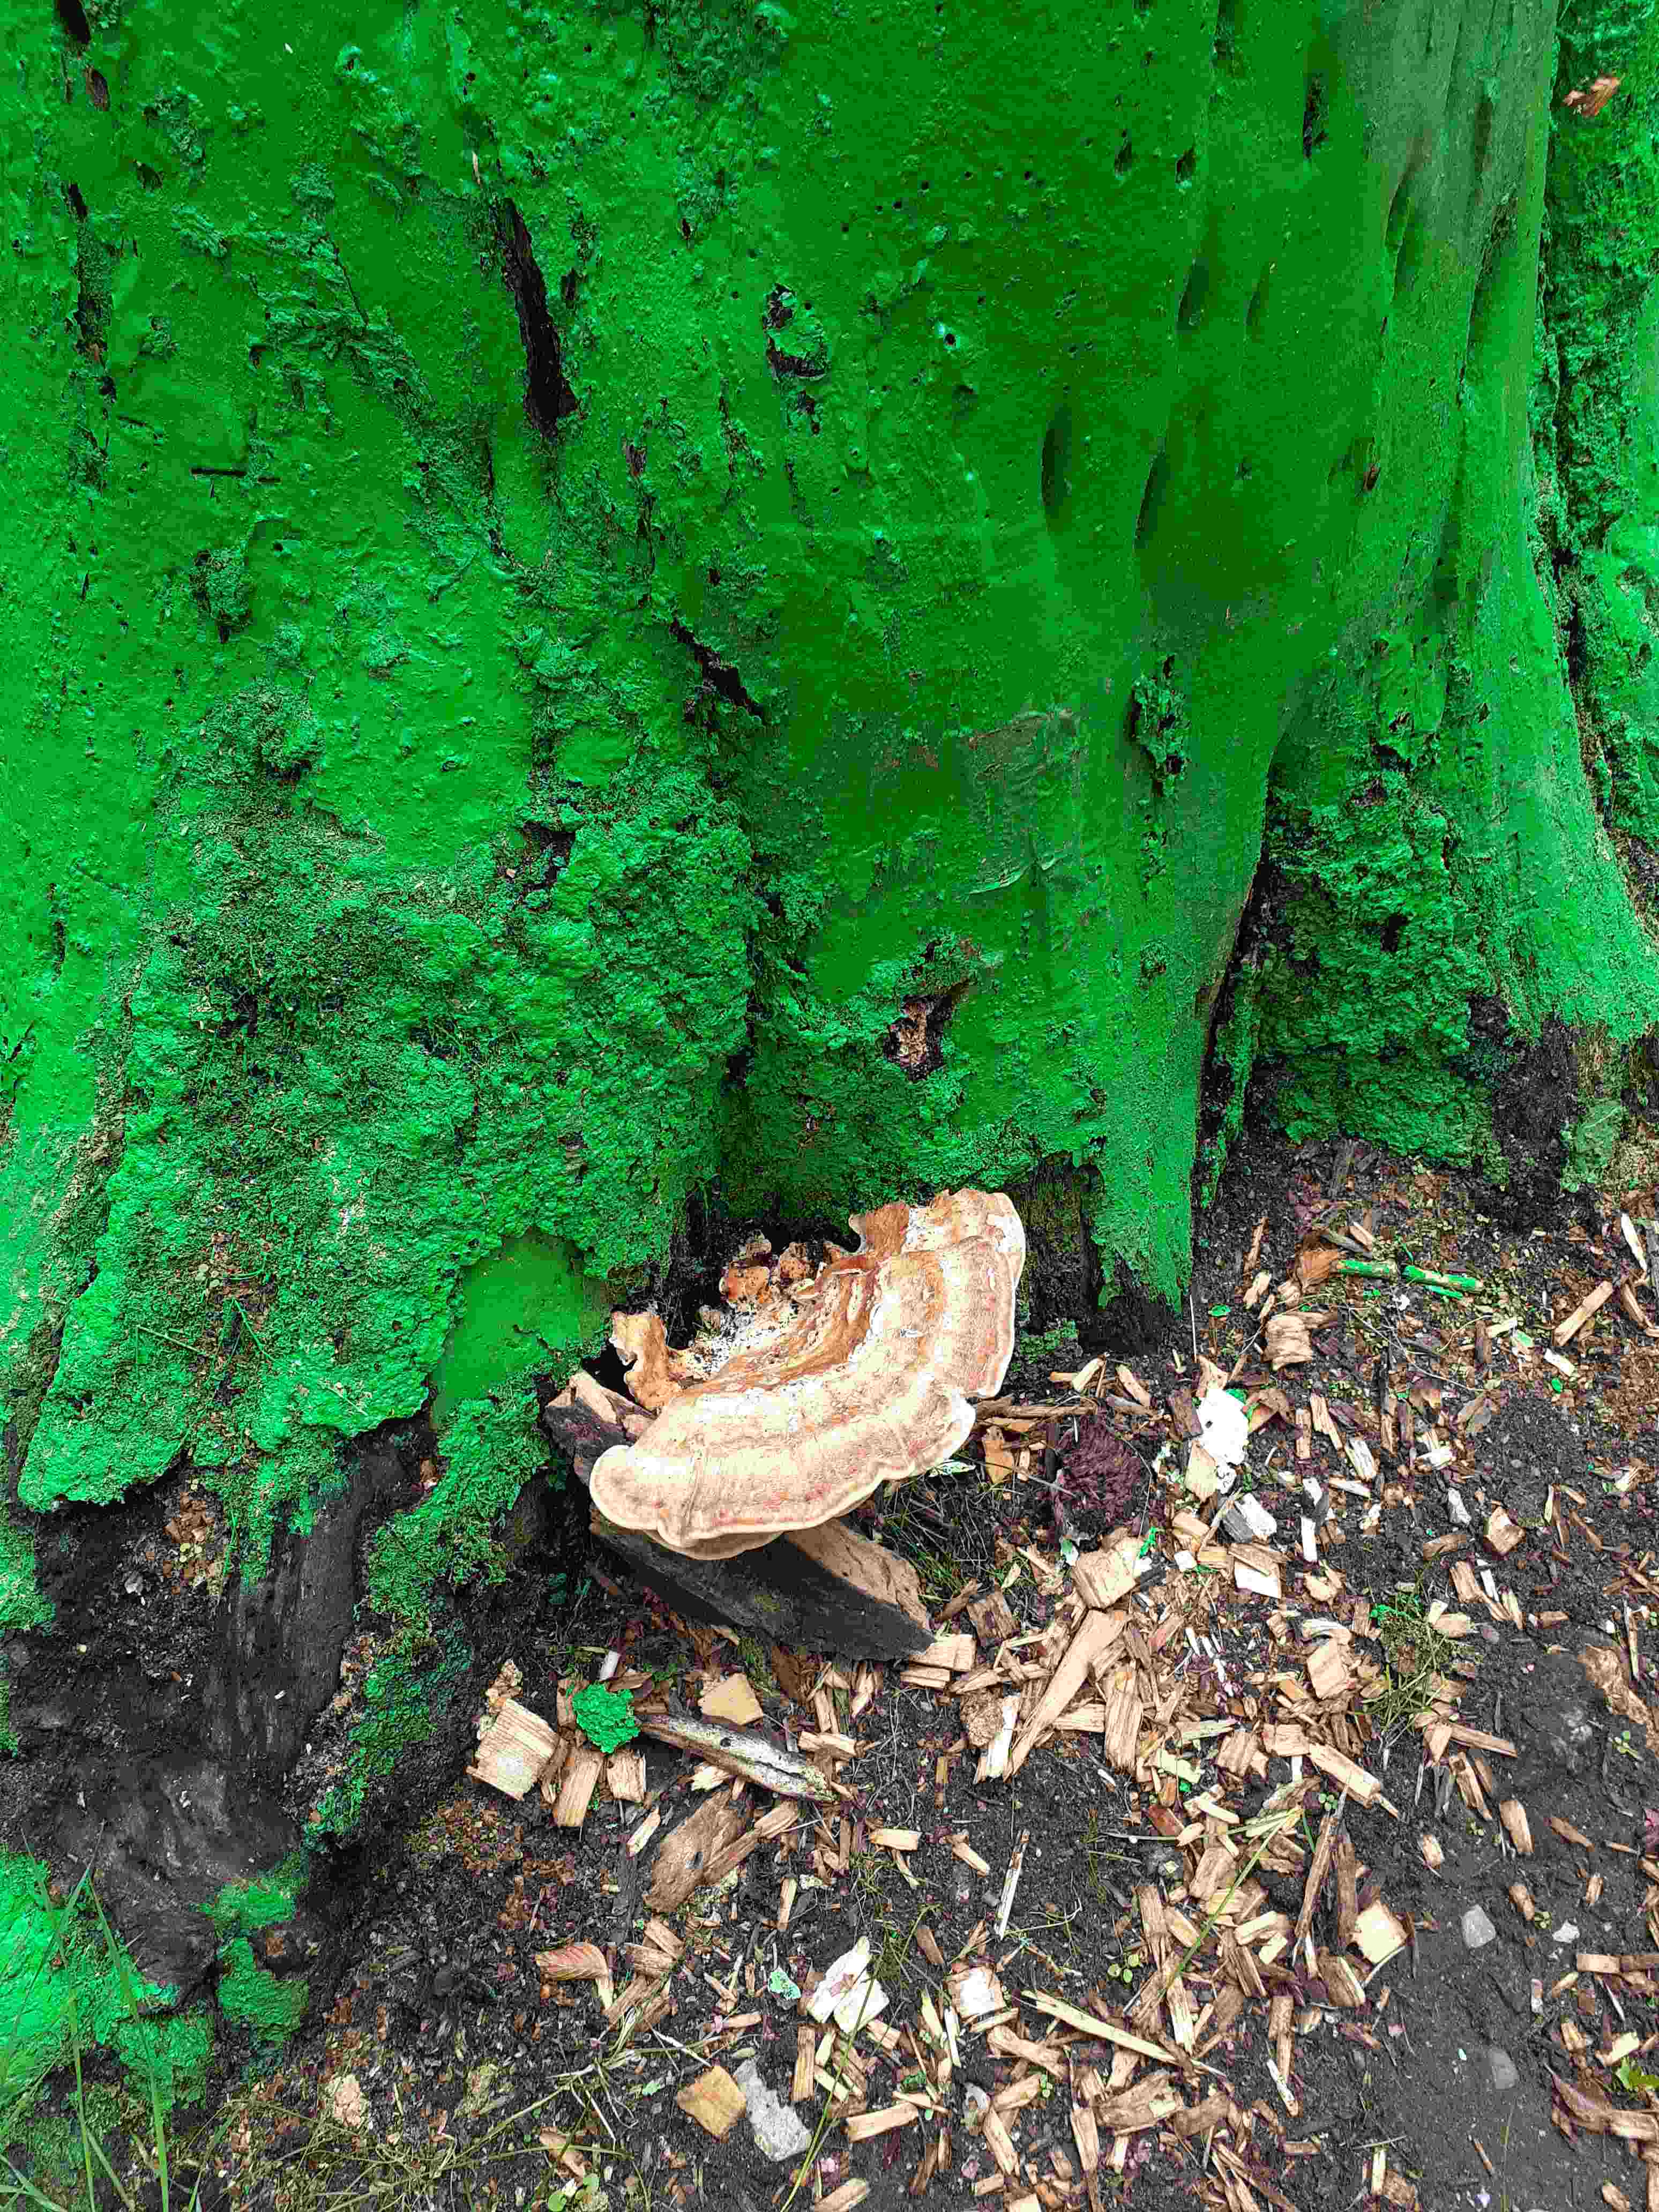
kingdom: Fungi
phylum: Basidiomycota
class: Agaricomycetes
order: Polyporales
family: Meripilaceae
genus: Meripilus
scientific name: Meripilus giganteus
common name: kæmpeporesvamp
